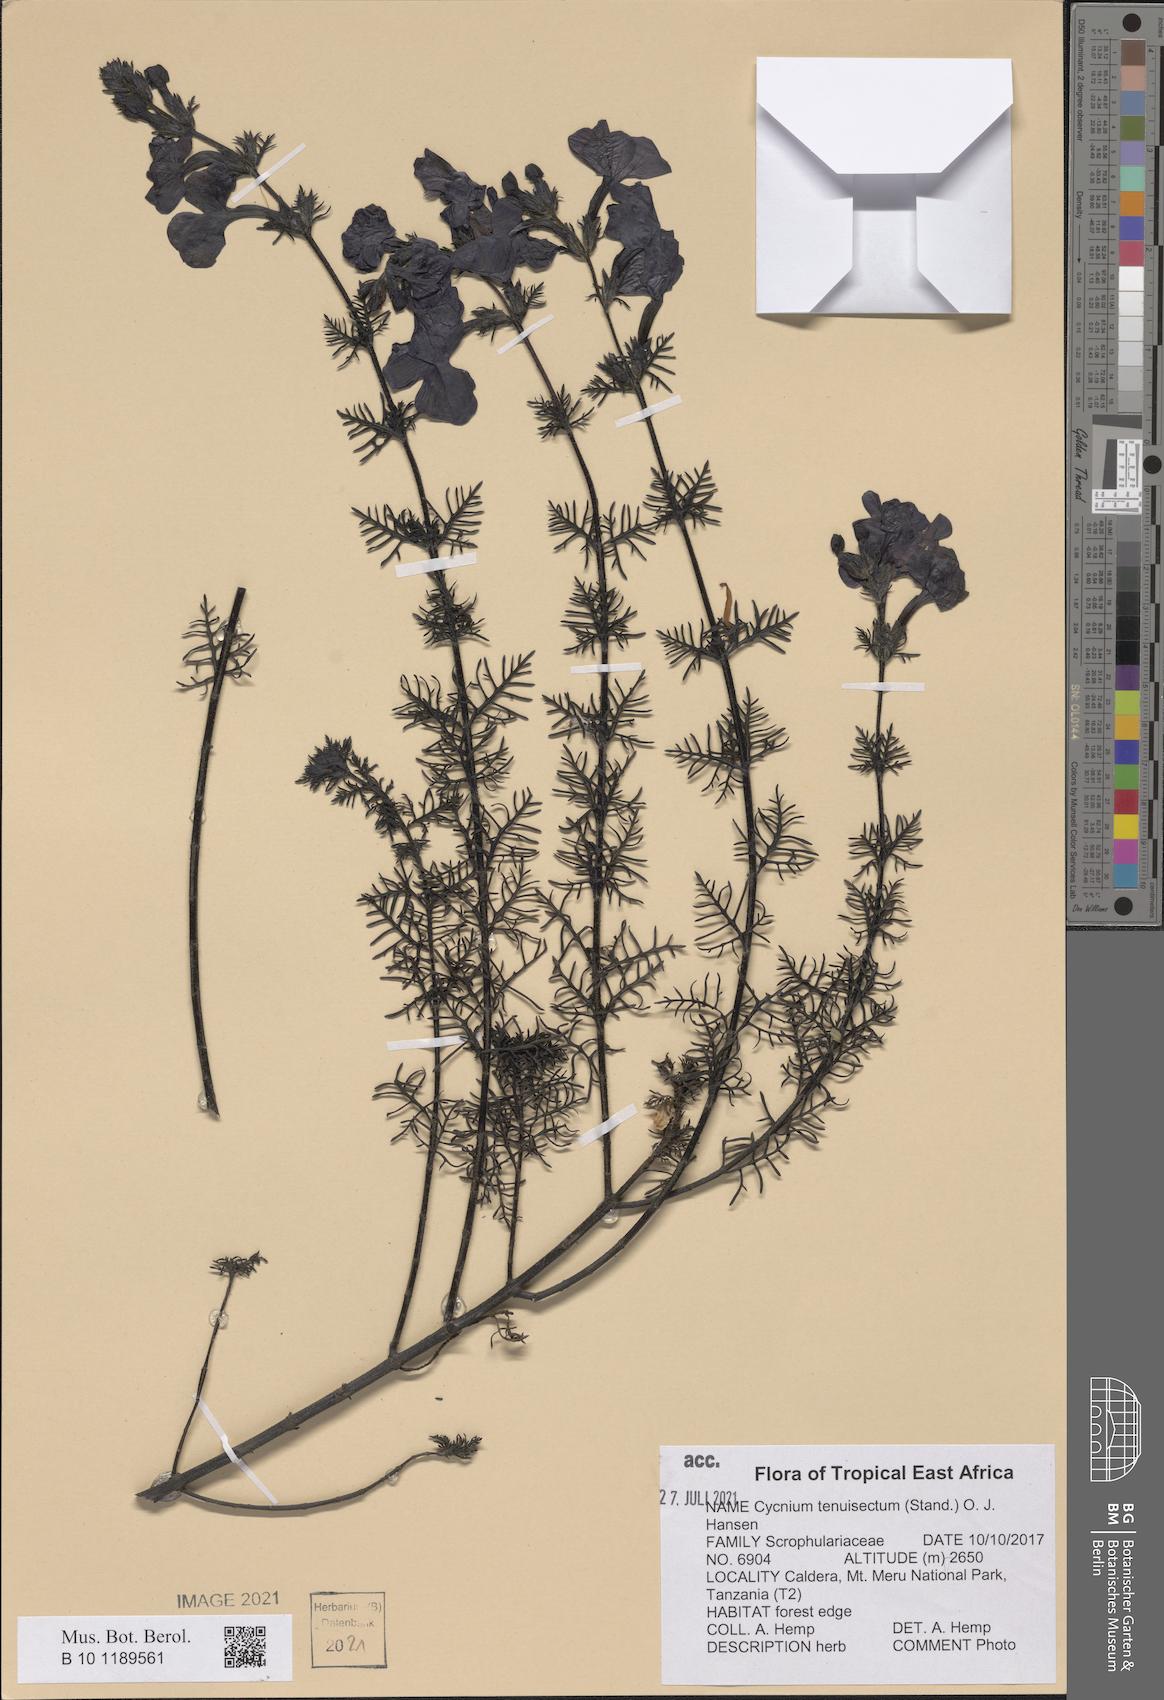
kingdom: Plantae
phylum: Tracheophyta
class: Magnoliopsida
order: Lamiales
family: Orobanchaceae
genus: Cycnium
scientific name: Cycnium tenuisectum
